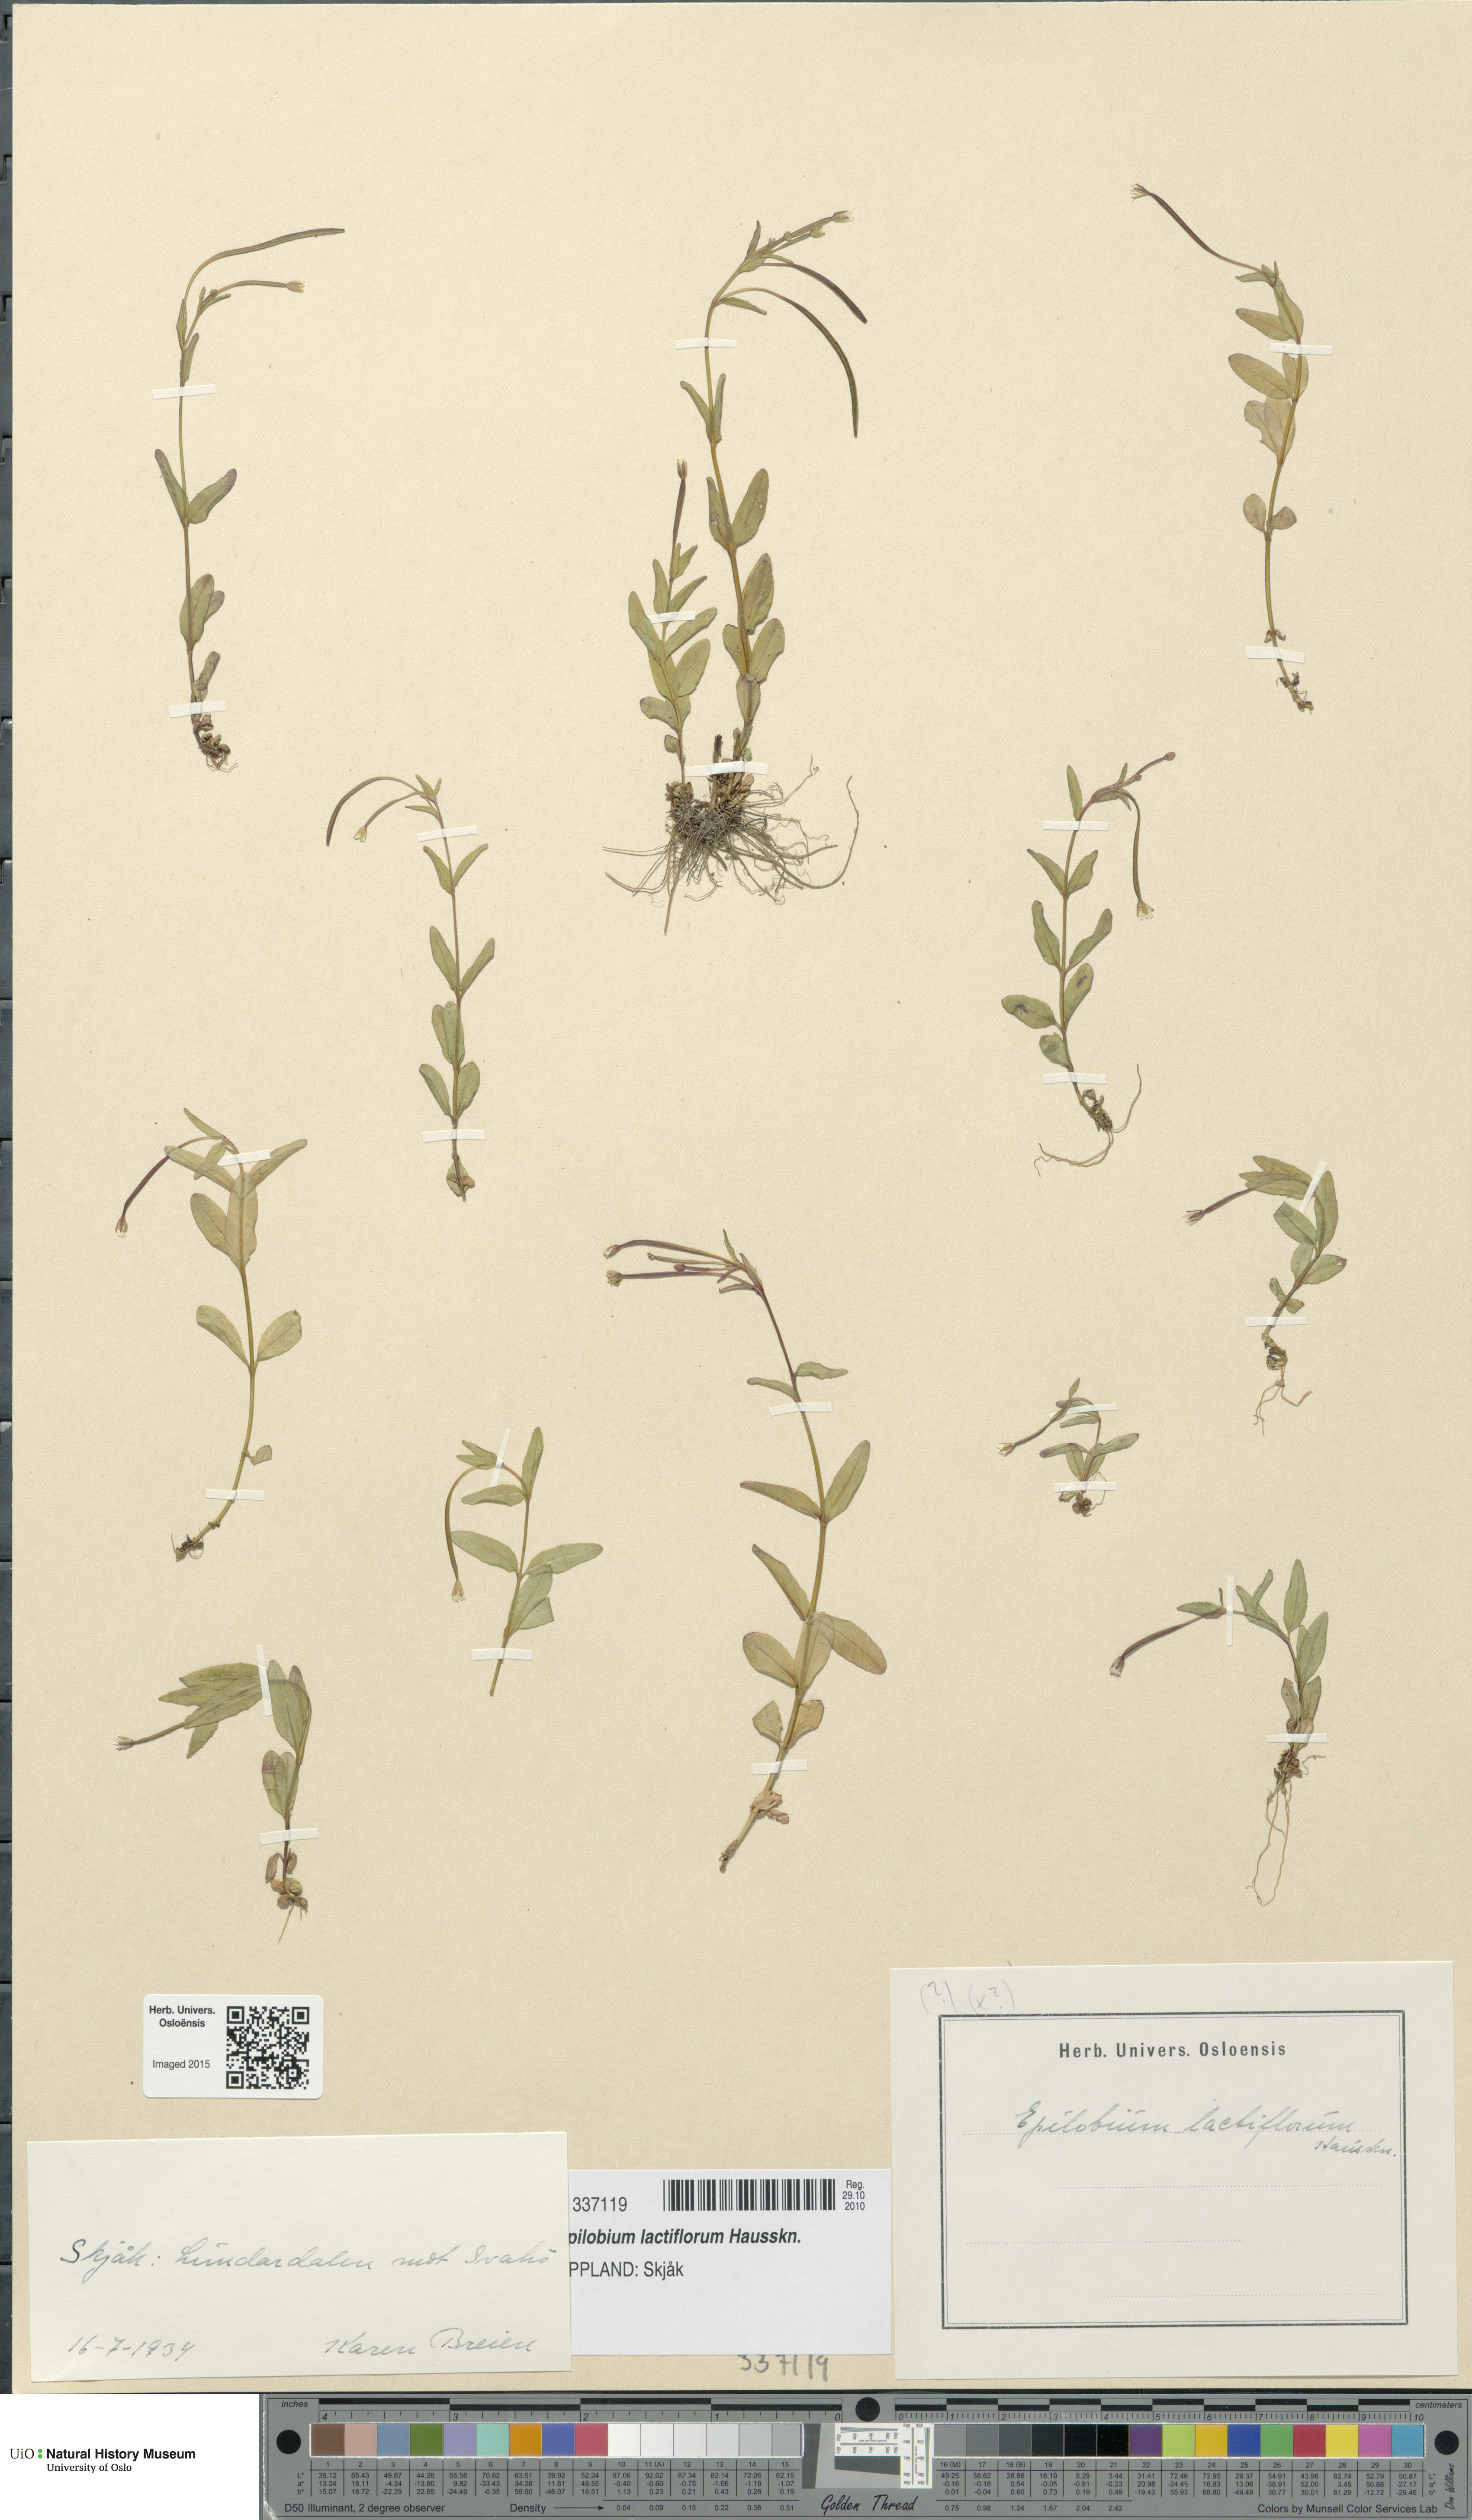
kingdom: Plantae
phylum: Tracheophyta
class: Magnoliopsida
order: Myrtales
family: Onagraceae
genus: Epilobium
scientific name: Epilobium lactiflorum
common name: Milkflower willowherb
